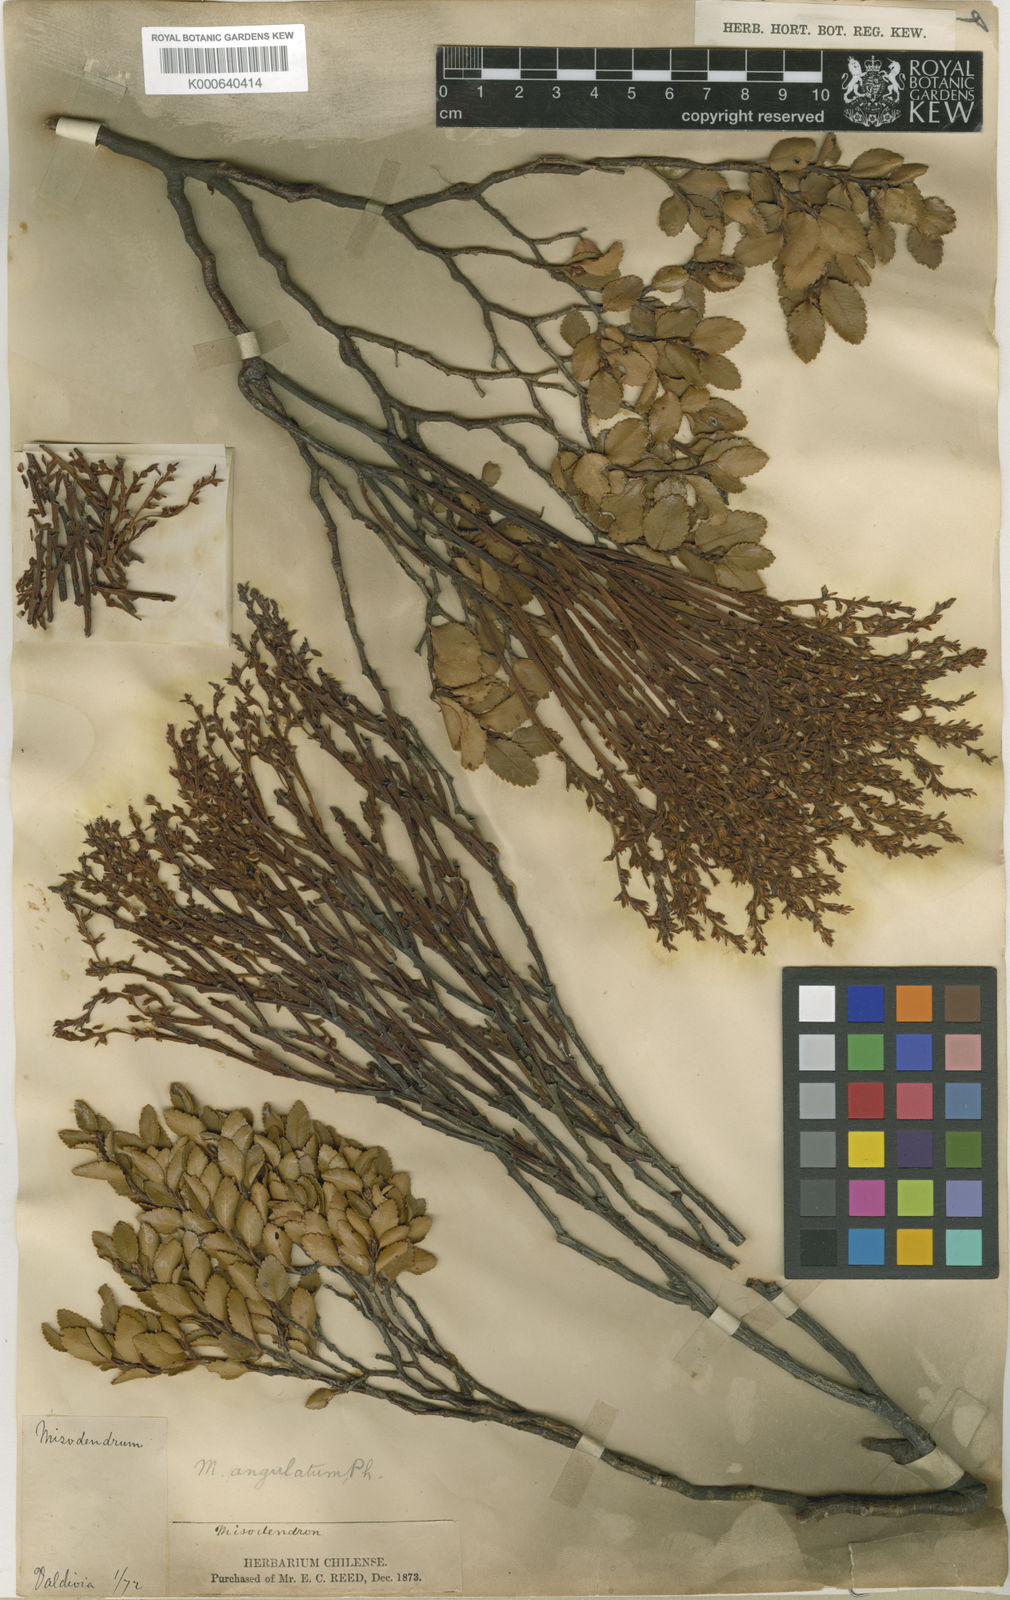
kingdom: Plantae
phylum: Tracheophyta
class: Magnoliopsida
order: Santalales
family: Misodendraceae
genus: Misodendrum
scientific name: Misodendrum angulatum
